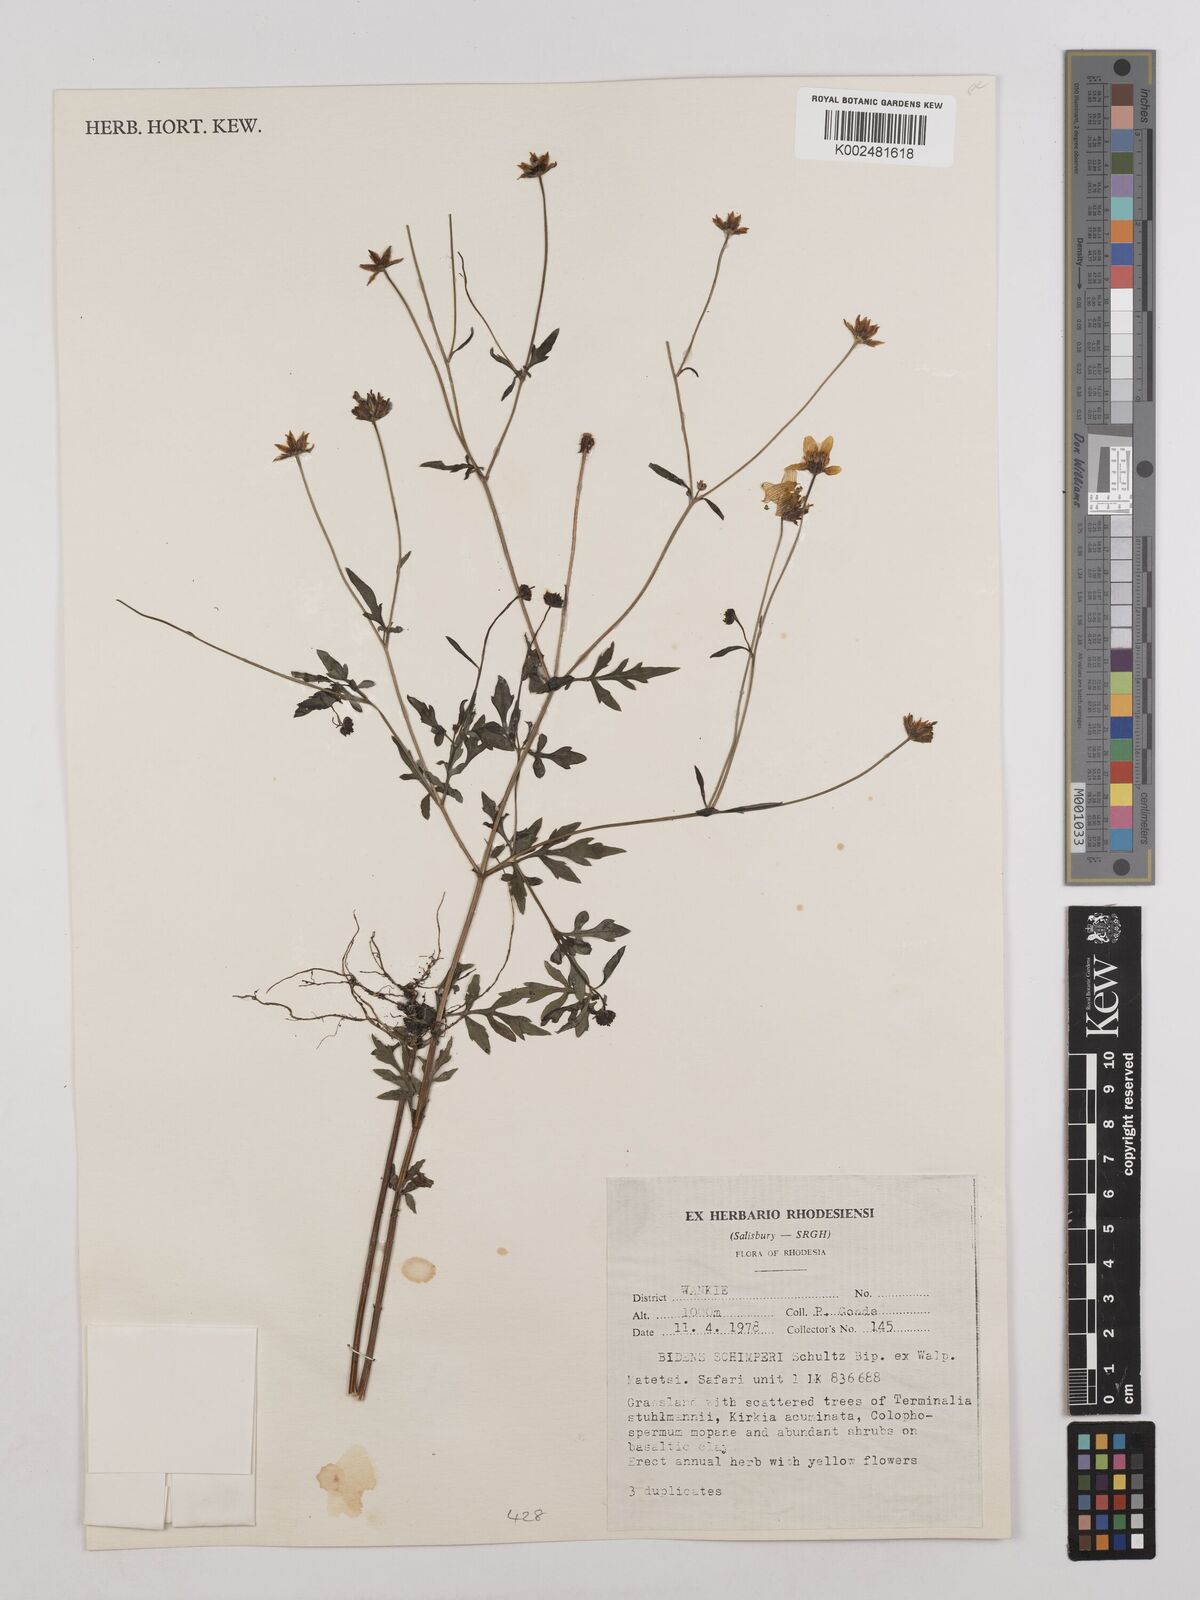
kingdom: Plantae
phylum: Tracheophyta
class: Magnoliopsida
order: Asterales
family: Asteraceae
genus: Bidens
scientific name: Bidens schimperi
